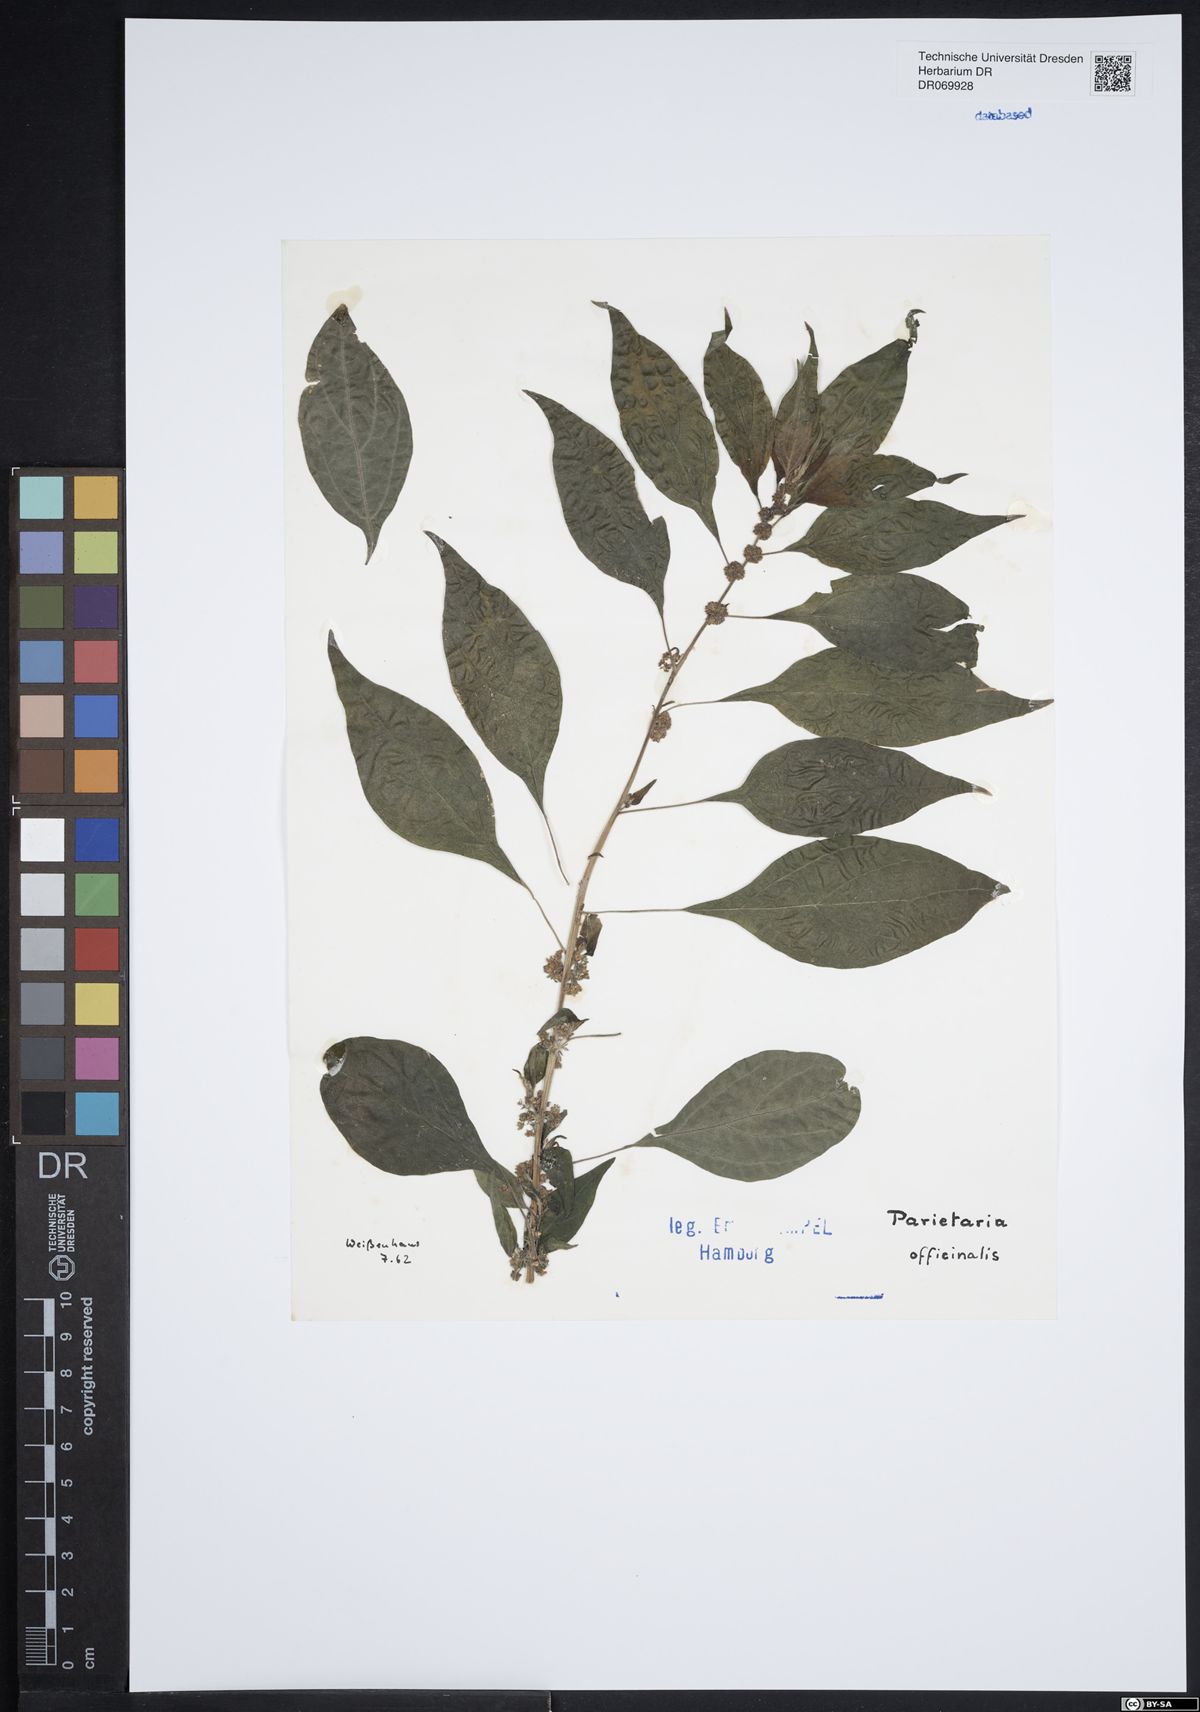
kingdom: Plantae
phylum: Tracheophyta
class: Magnoliopsida
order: Rosales
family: Urticaceae
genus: Parietaria
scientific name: Parietaria officinalis
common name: Eastern pellitory-of-the-wall
